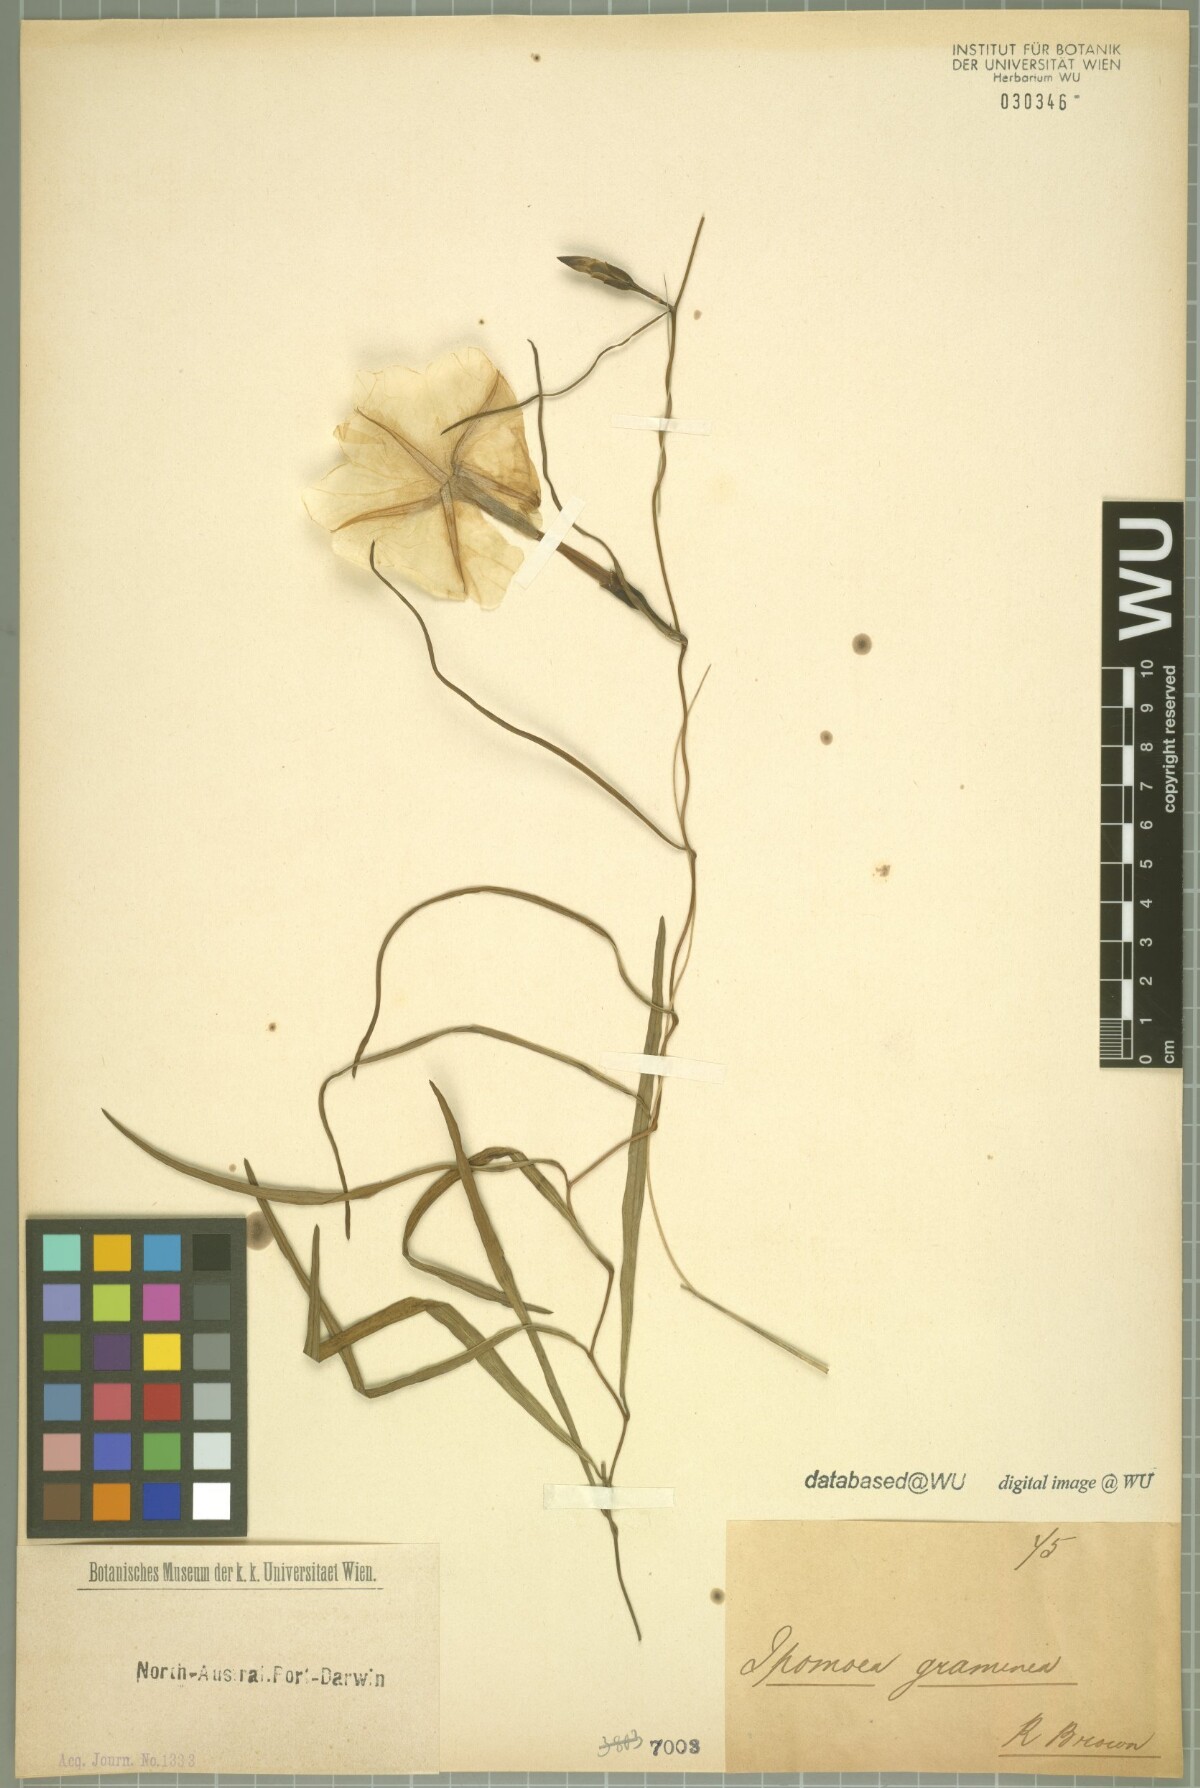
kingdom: Plantae
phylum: Tracheophyta
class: Magnoliopsida
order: Solanales
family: Convolvulaceae
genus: Ipomoea
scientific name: Ipomoea graminea
